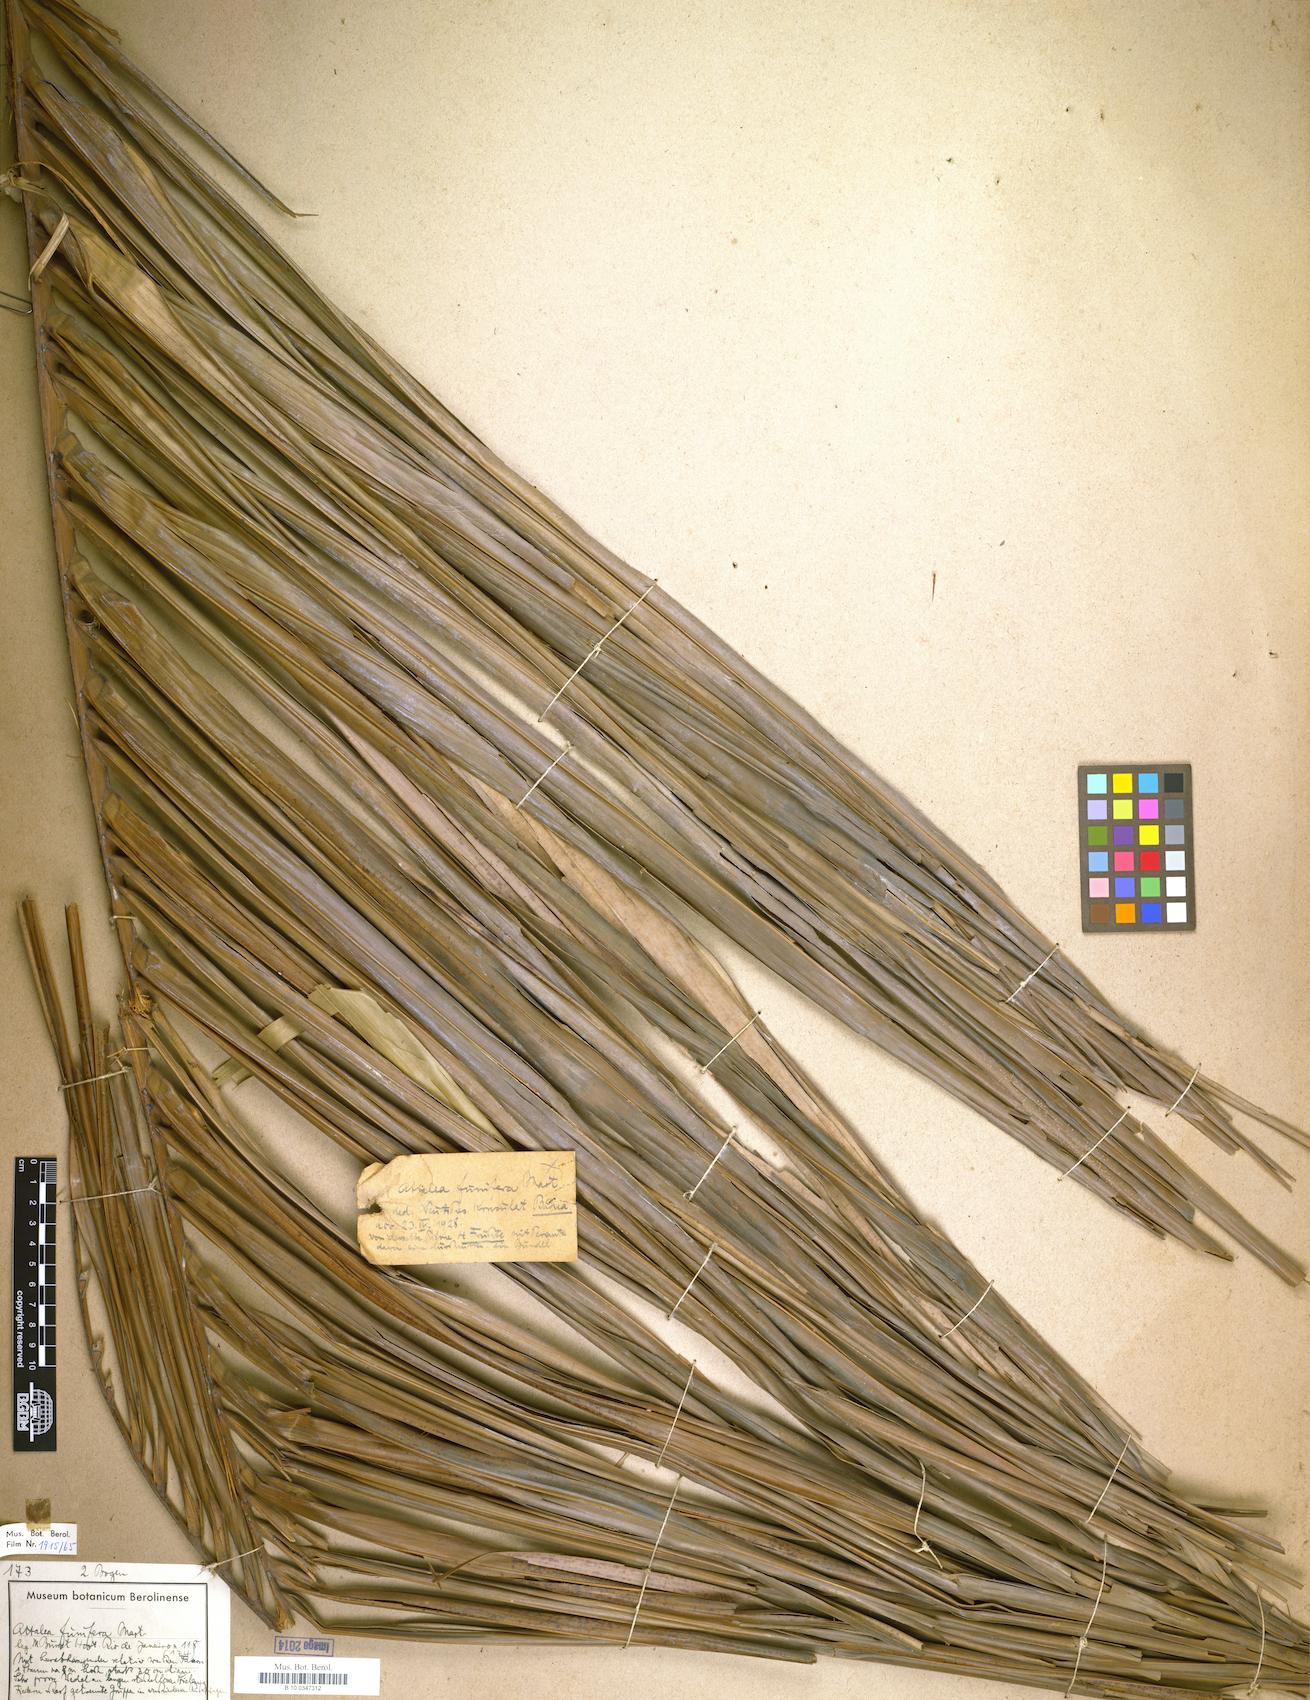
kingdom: Plantae
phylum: Tracheophyta
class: Liliopsida
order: Arecales
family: Arecaceae
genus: Attalea
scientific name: Attalea funifera
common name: Piassava palm
